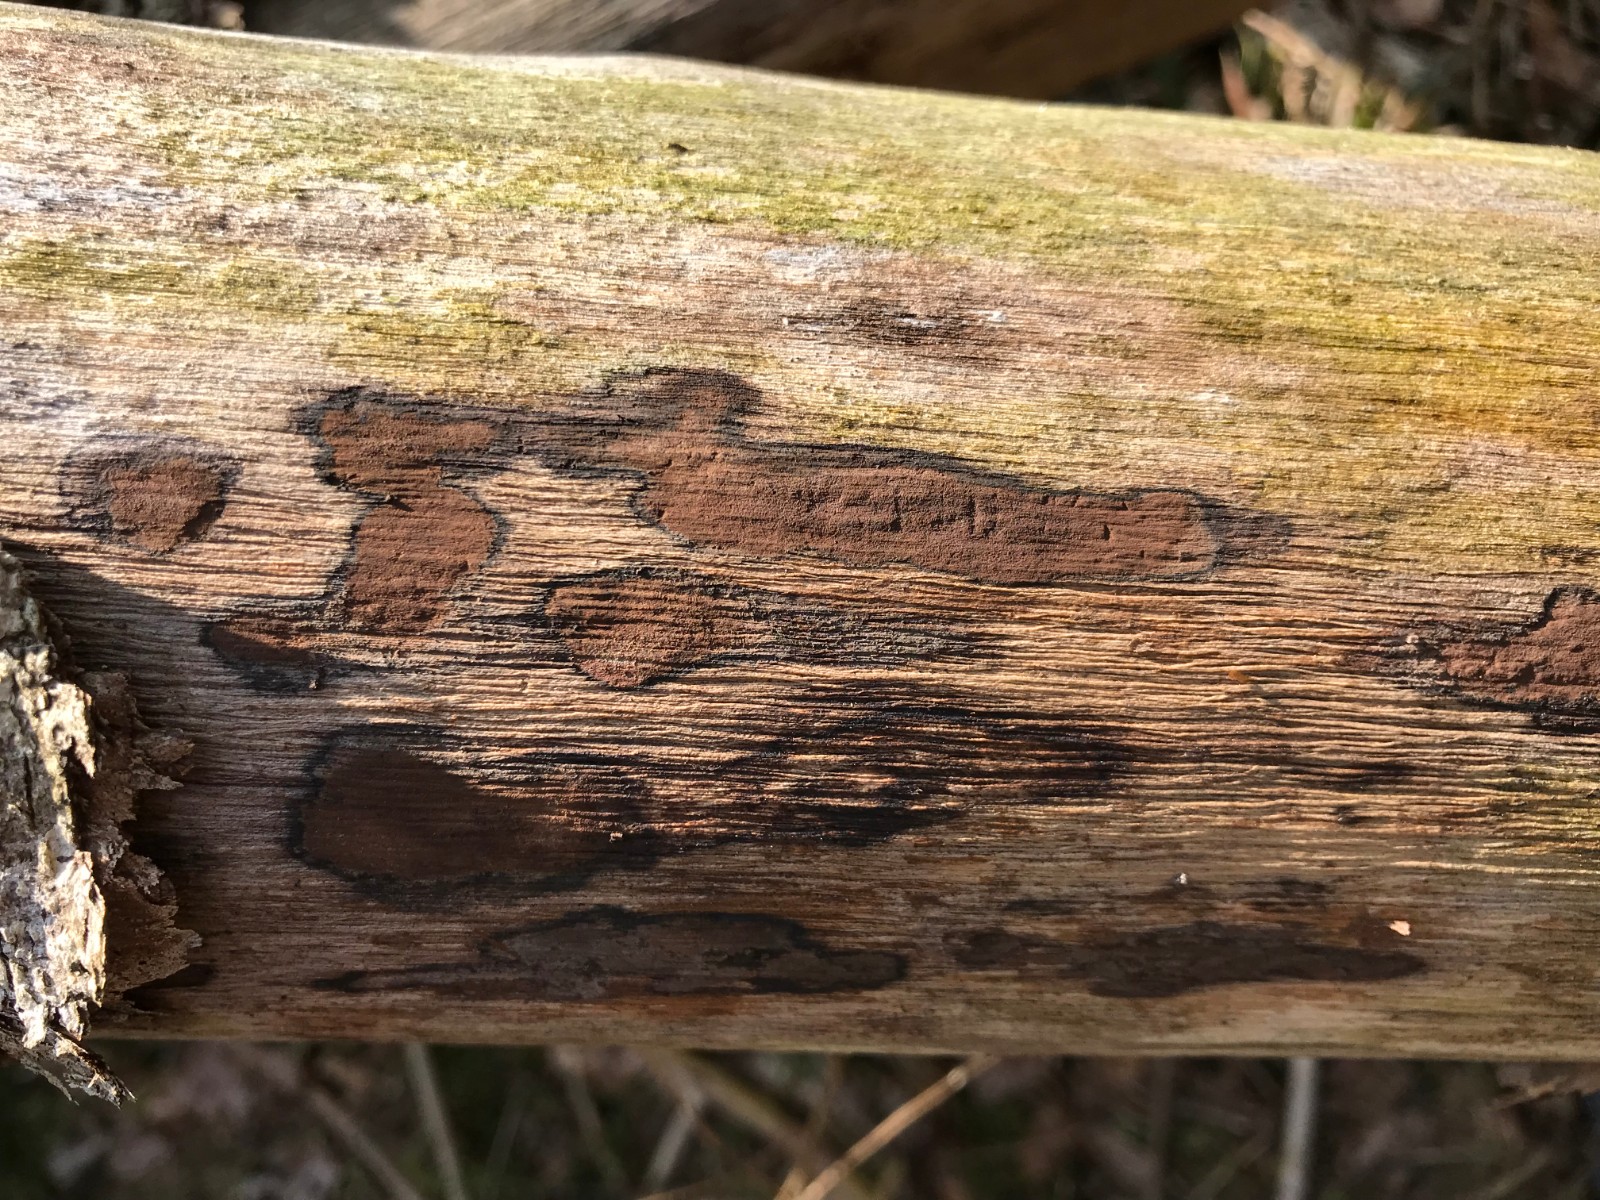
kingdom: Fungi
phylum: Ascomycota
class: Sordariomycetes
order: Xylariales
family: Hypoxylaceae
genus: Hypoxylon
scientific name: Hypoxylon petriniae
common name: nedsænket kulbær
